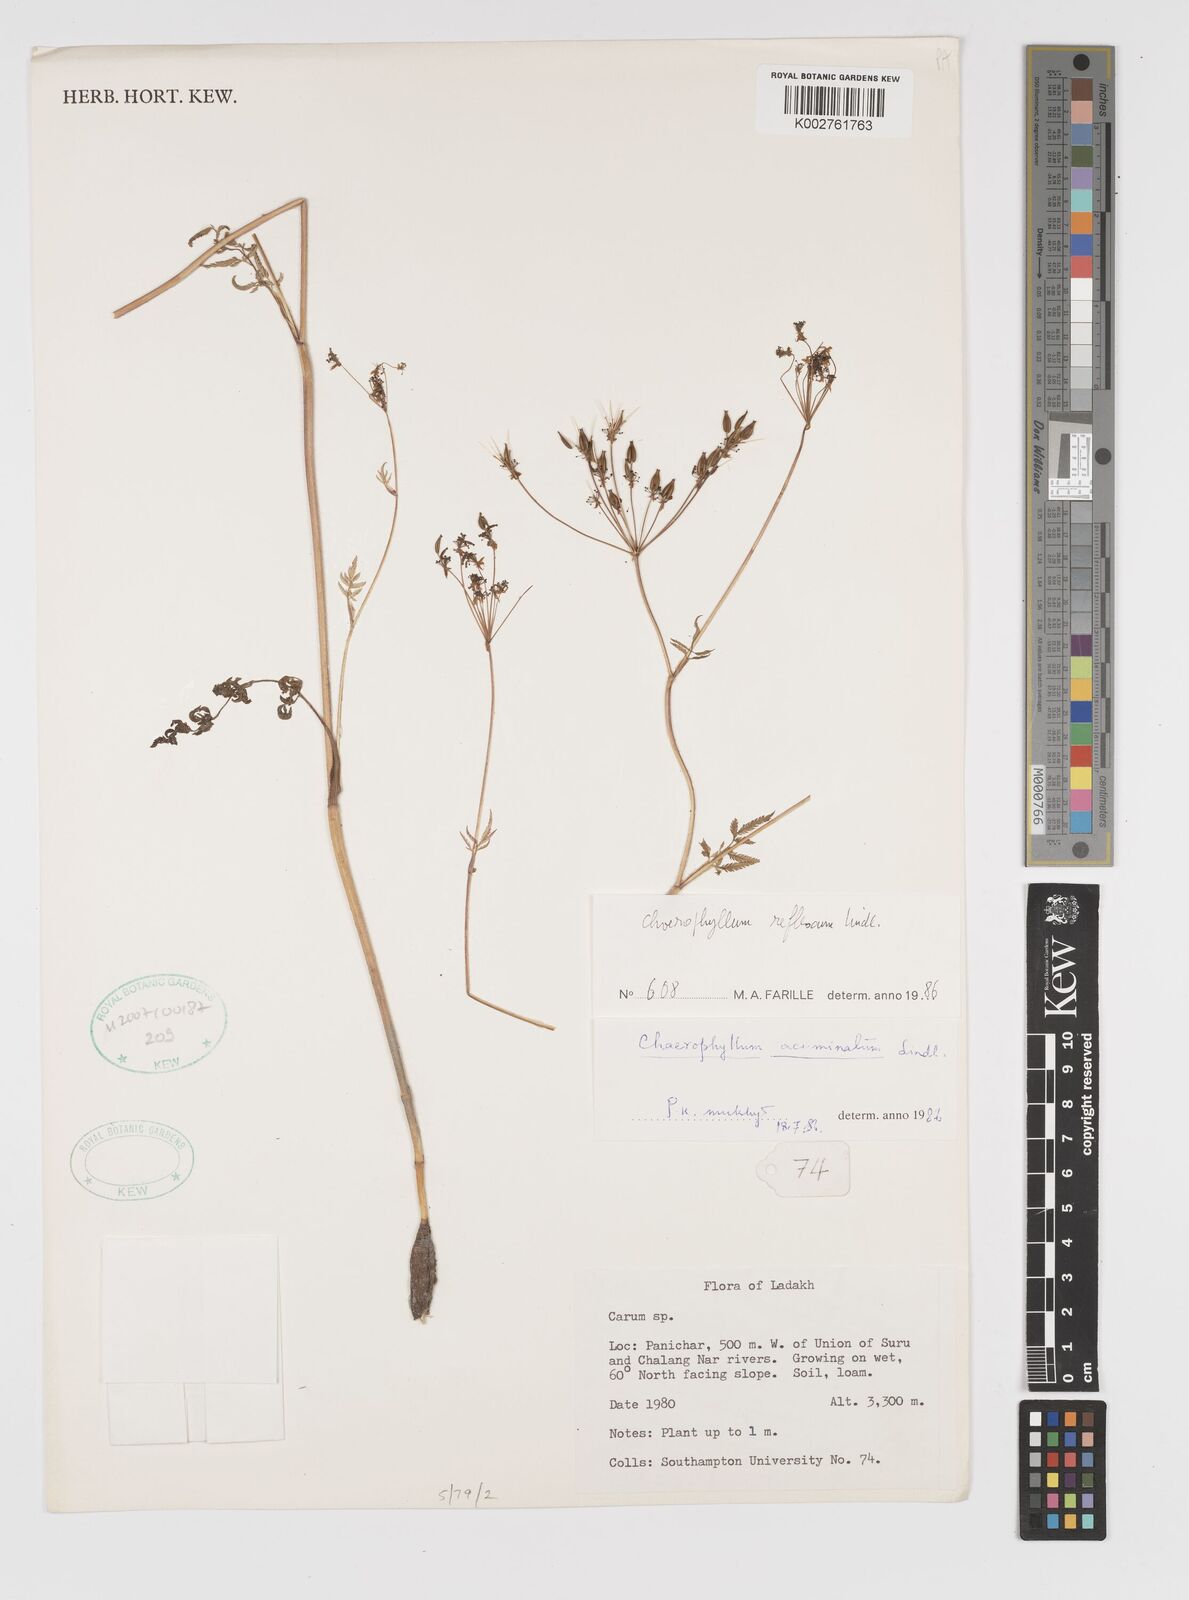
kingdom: Plantae
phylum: Tracheophyta
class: Magnoliopsida
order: Apiales
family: Apiaceae
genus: Chaerophyllum
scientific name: Chaerophyllum reflexum
